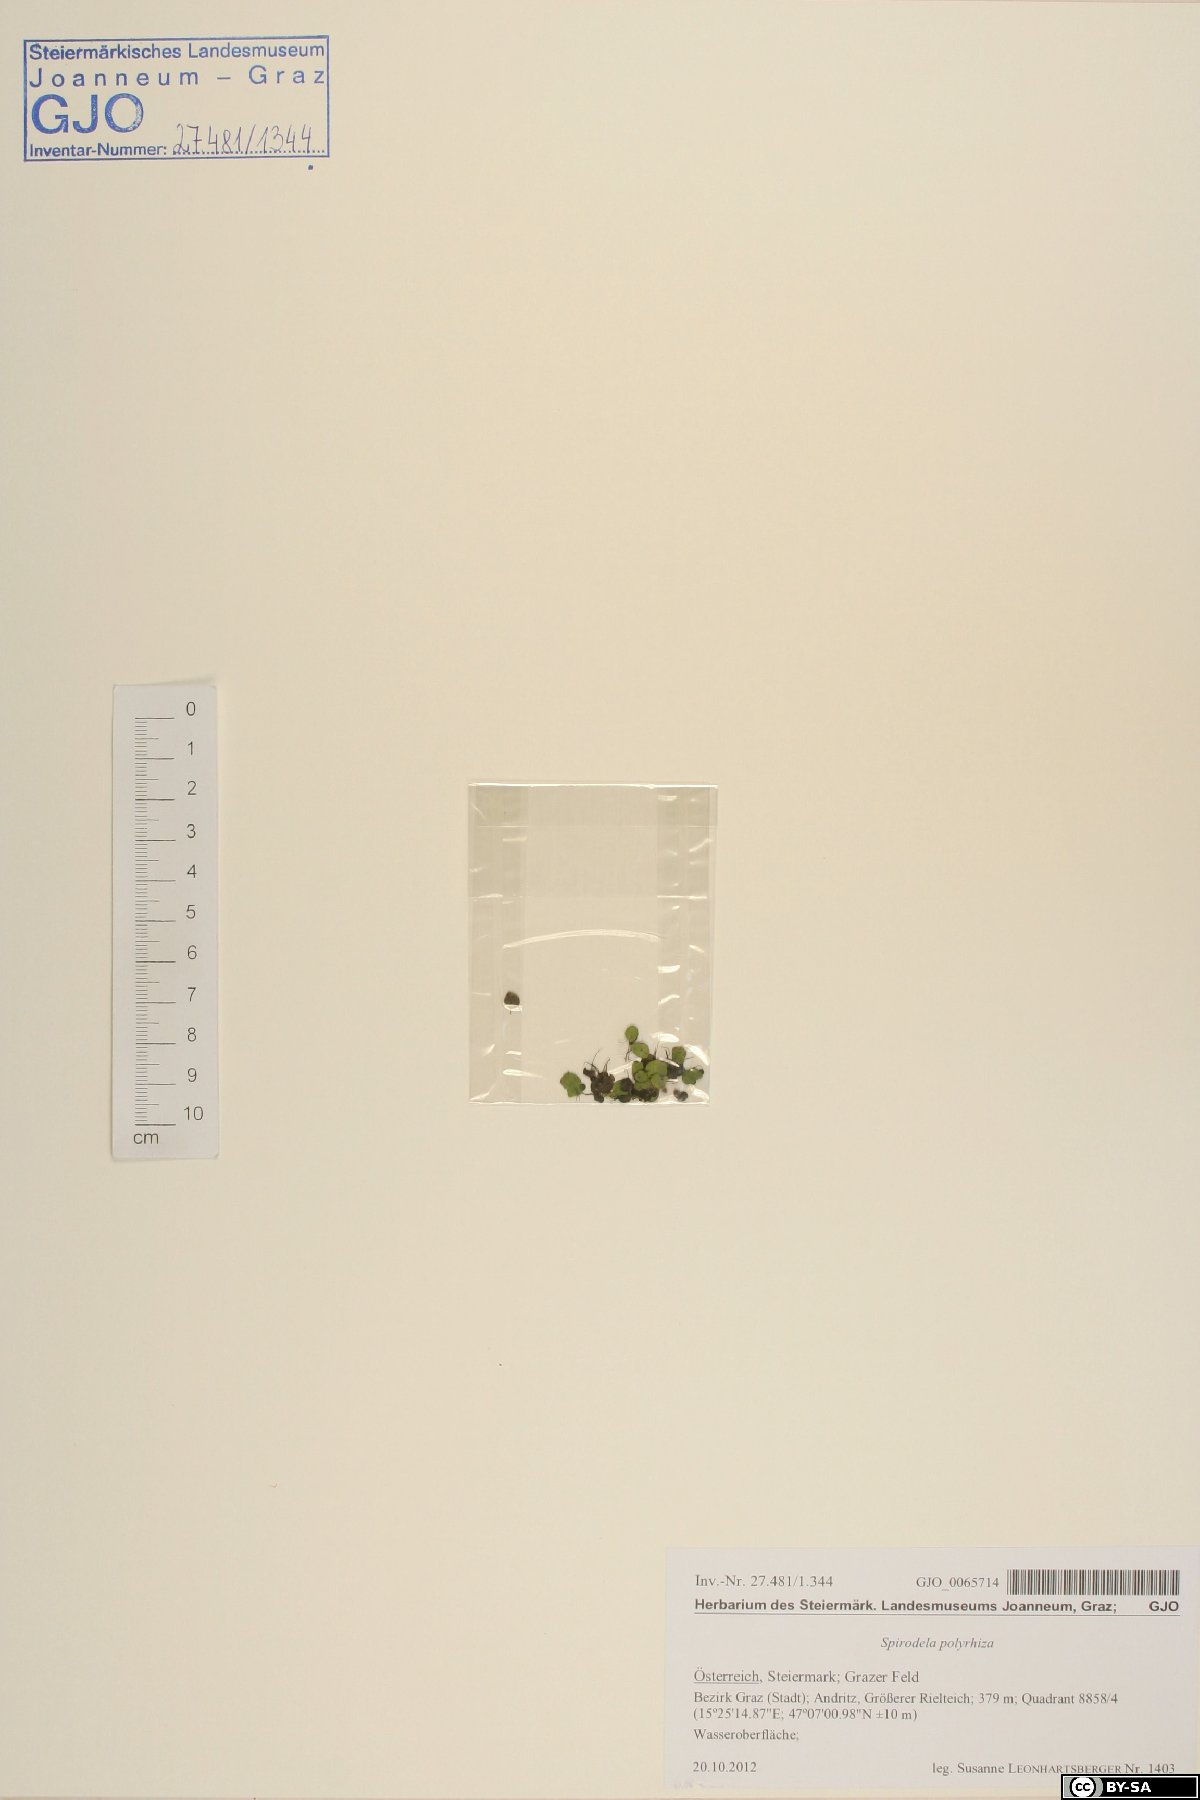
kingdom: Plantae
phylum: Tracheophyta
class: Liliopsida
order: Alismatales
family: Araceae
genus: Spirodela
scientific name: Spirodela polyrhiza
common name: Great duckweed
